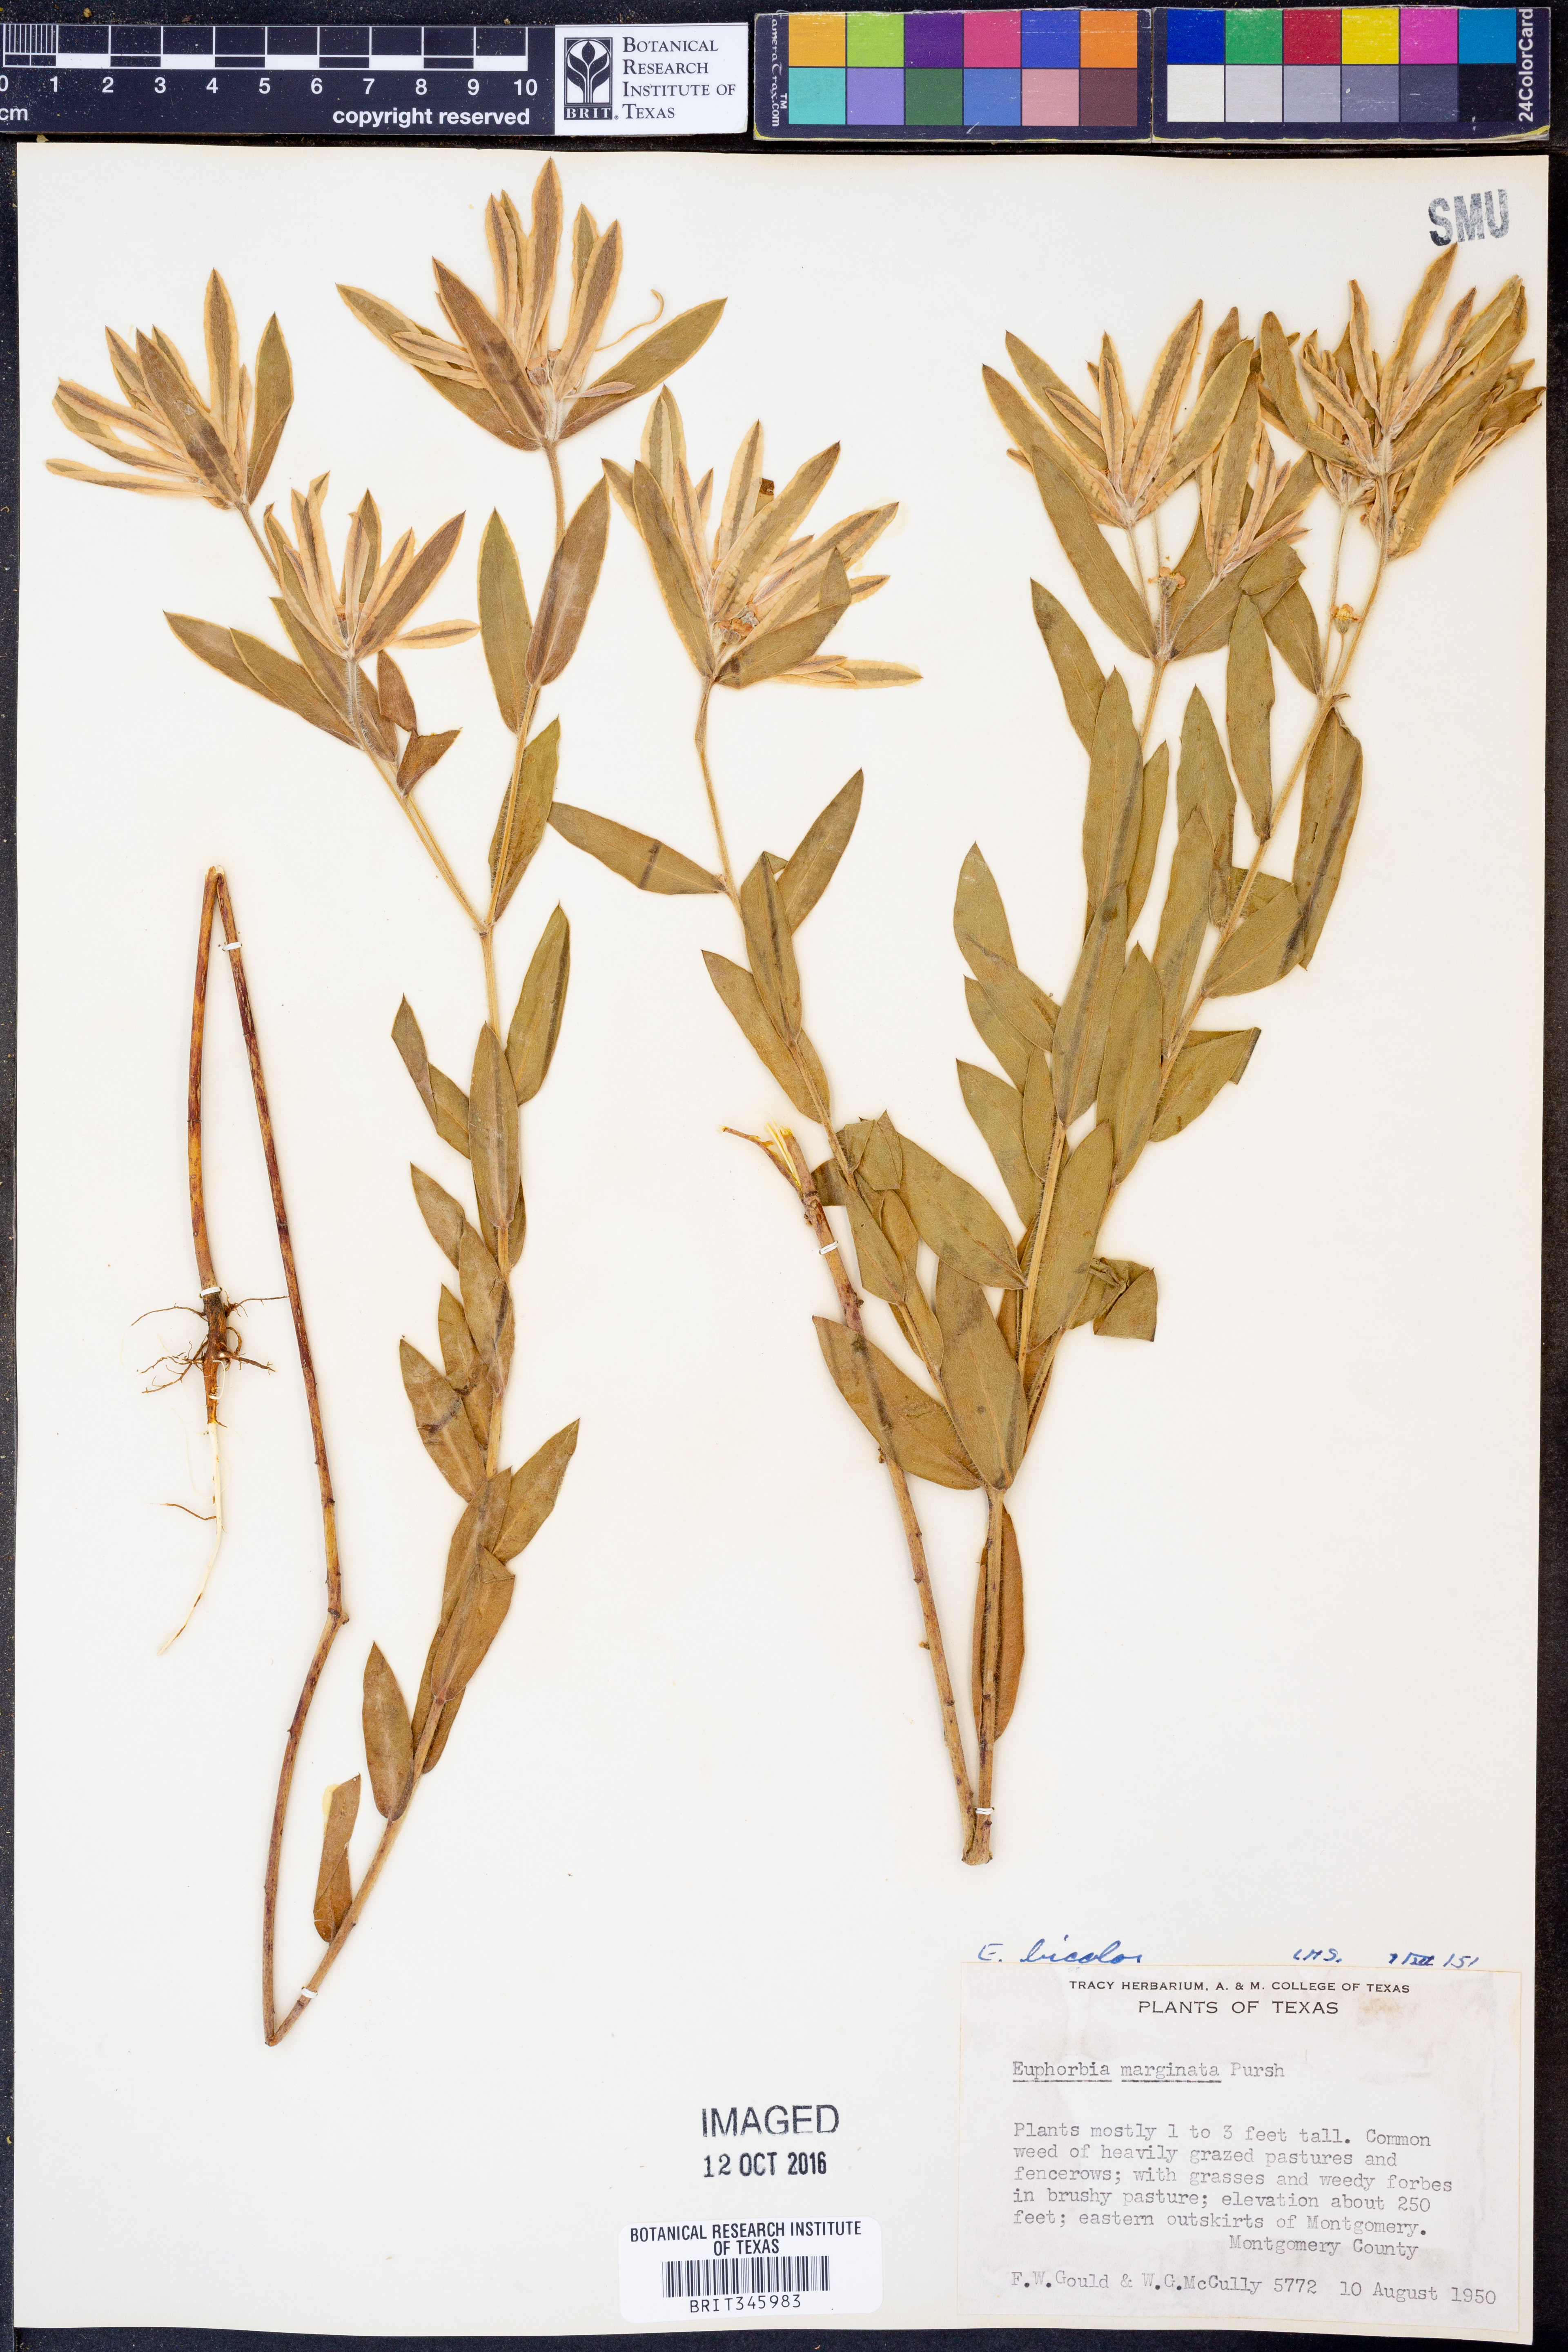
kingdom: Plantae
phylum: Tracheophyta
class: Magnoliopsida
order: Malpighiales
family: Euphorbiaceae
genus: Euphorbia
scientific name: Euphorbia bicolor
